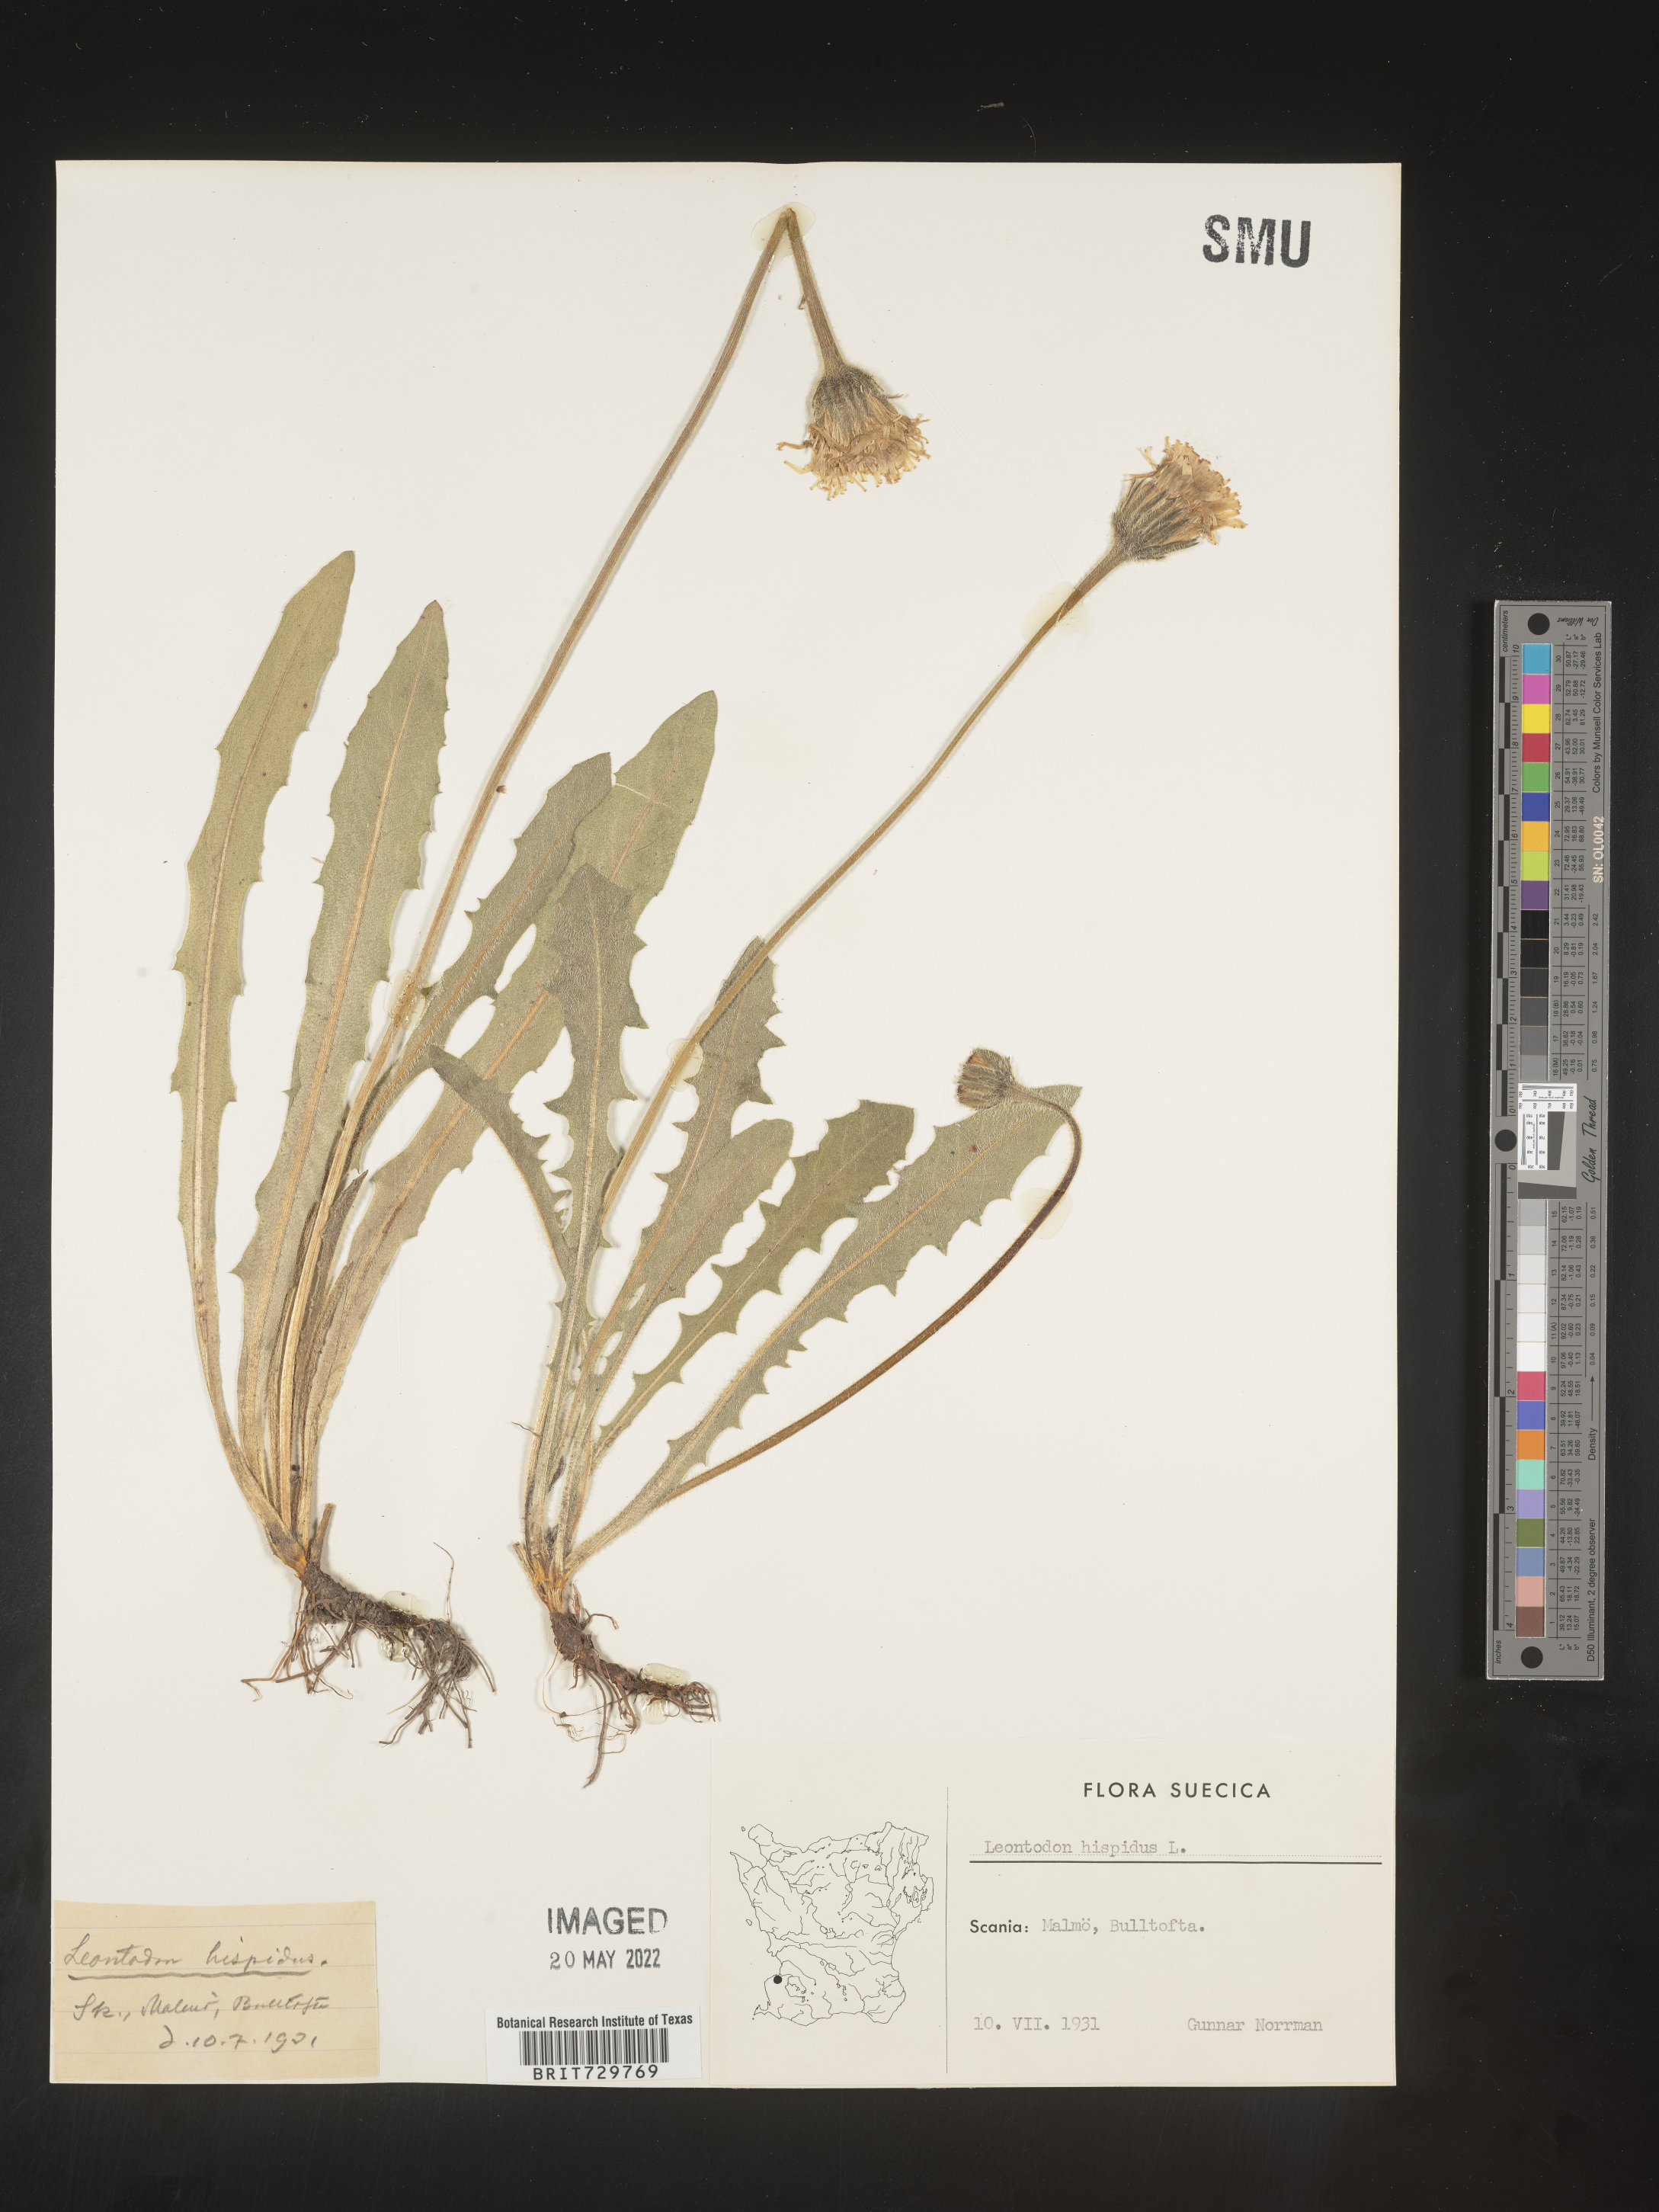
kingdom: Plantae
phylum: Tracheophyta
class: Magnoliopsida
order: Asterales
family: Asteraceae
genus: Leontodon
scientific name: Leontodon
